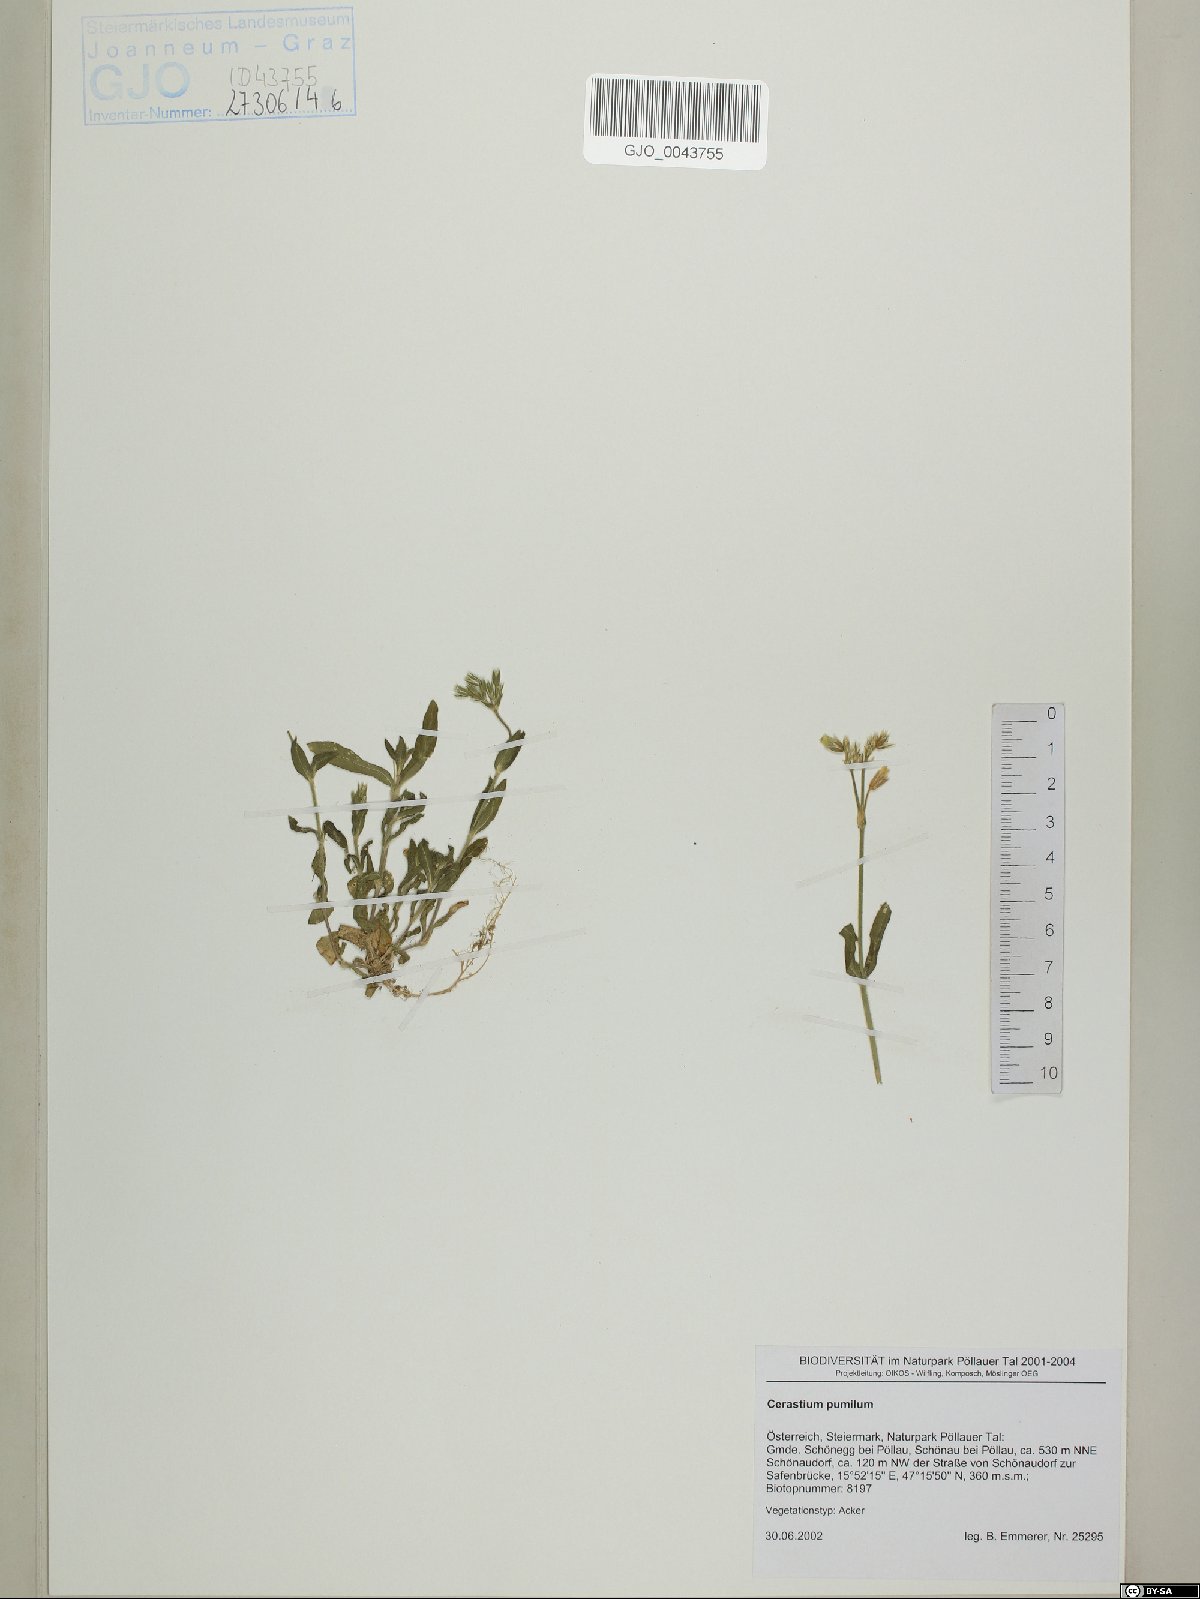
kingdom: Plantae
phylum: Tracheophyta
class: Magnoliopsida
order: Caryophyllales
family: Caryophyllaceae
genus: Cerastium
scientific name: Cerastium pumilum
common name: Dwarf mouse-ear
